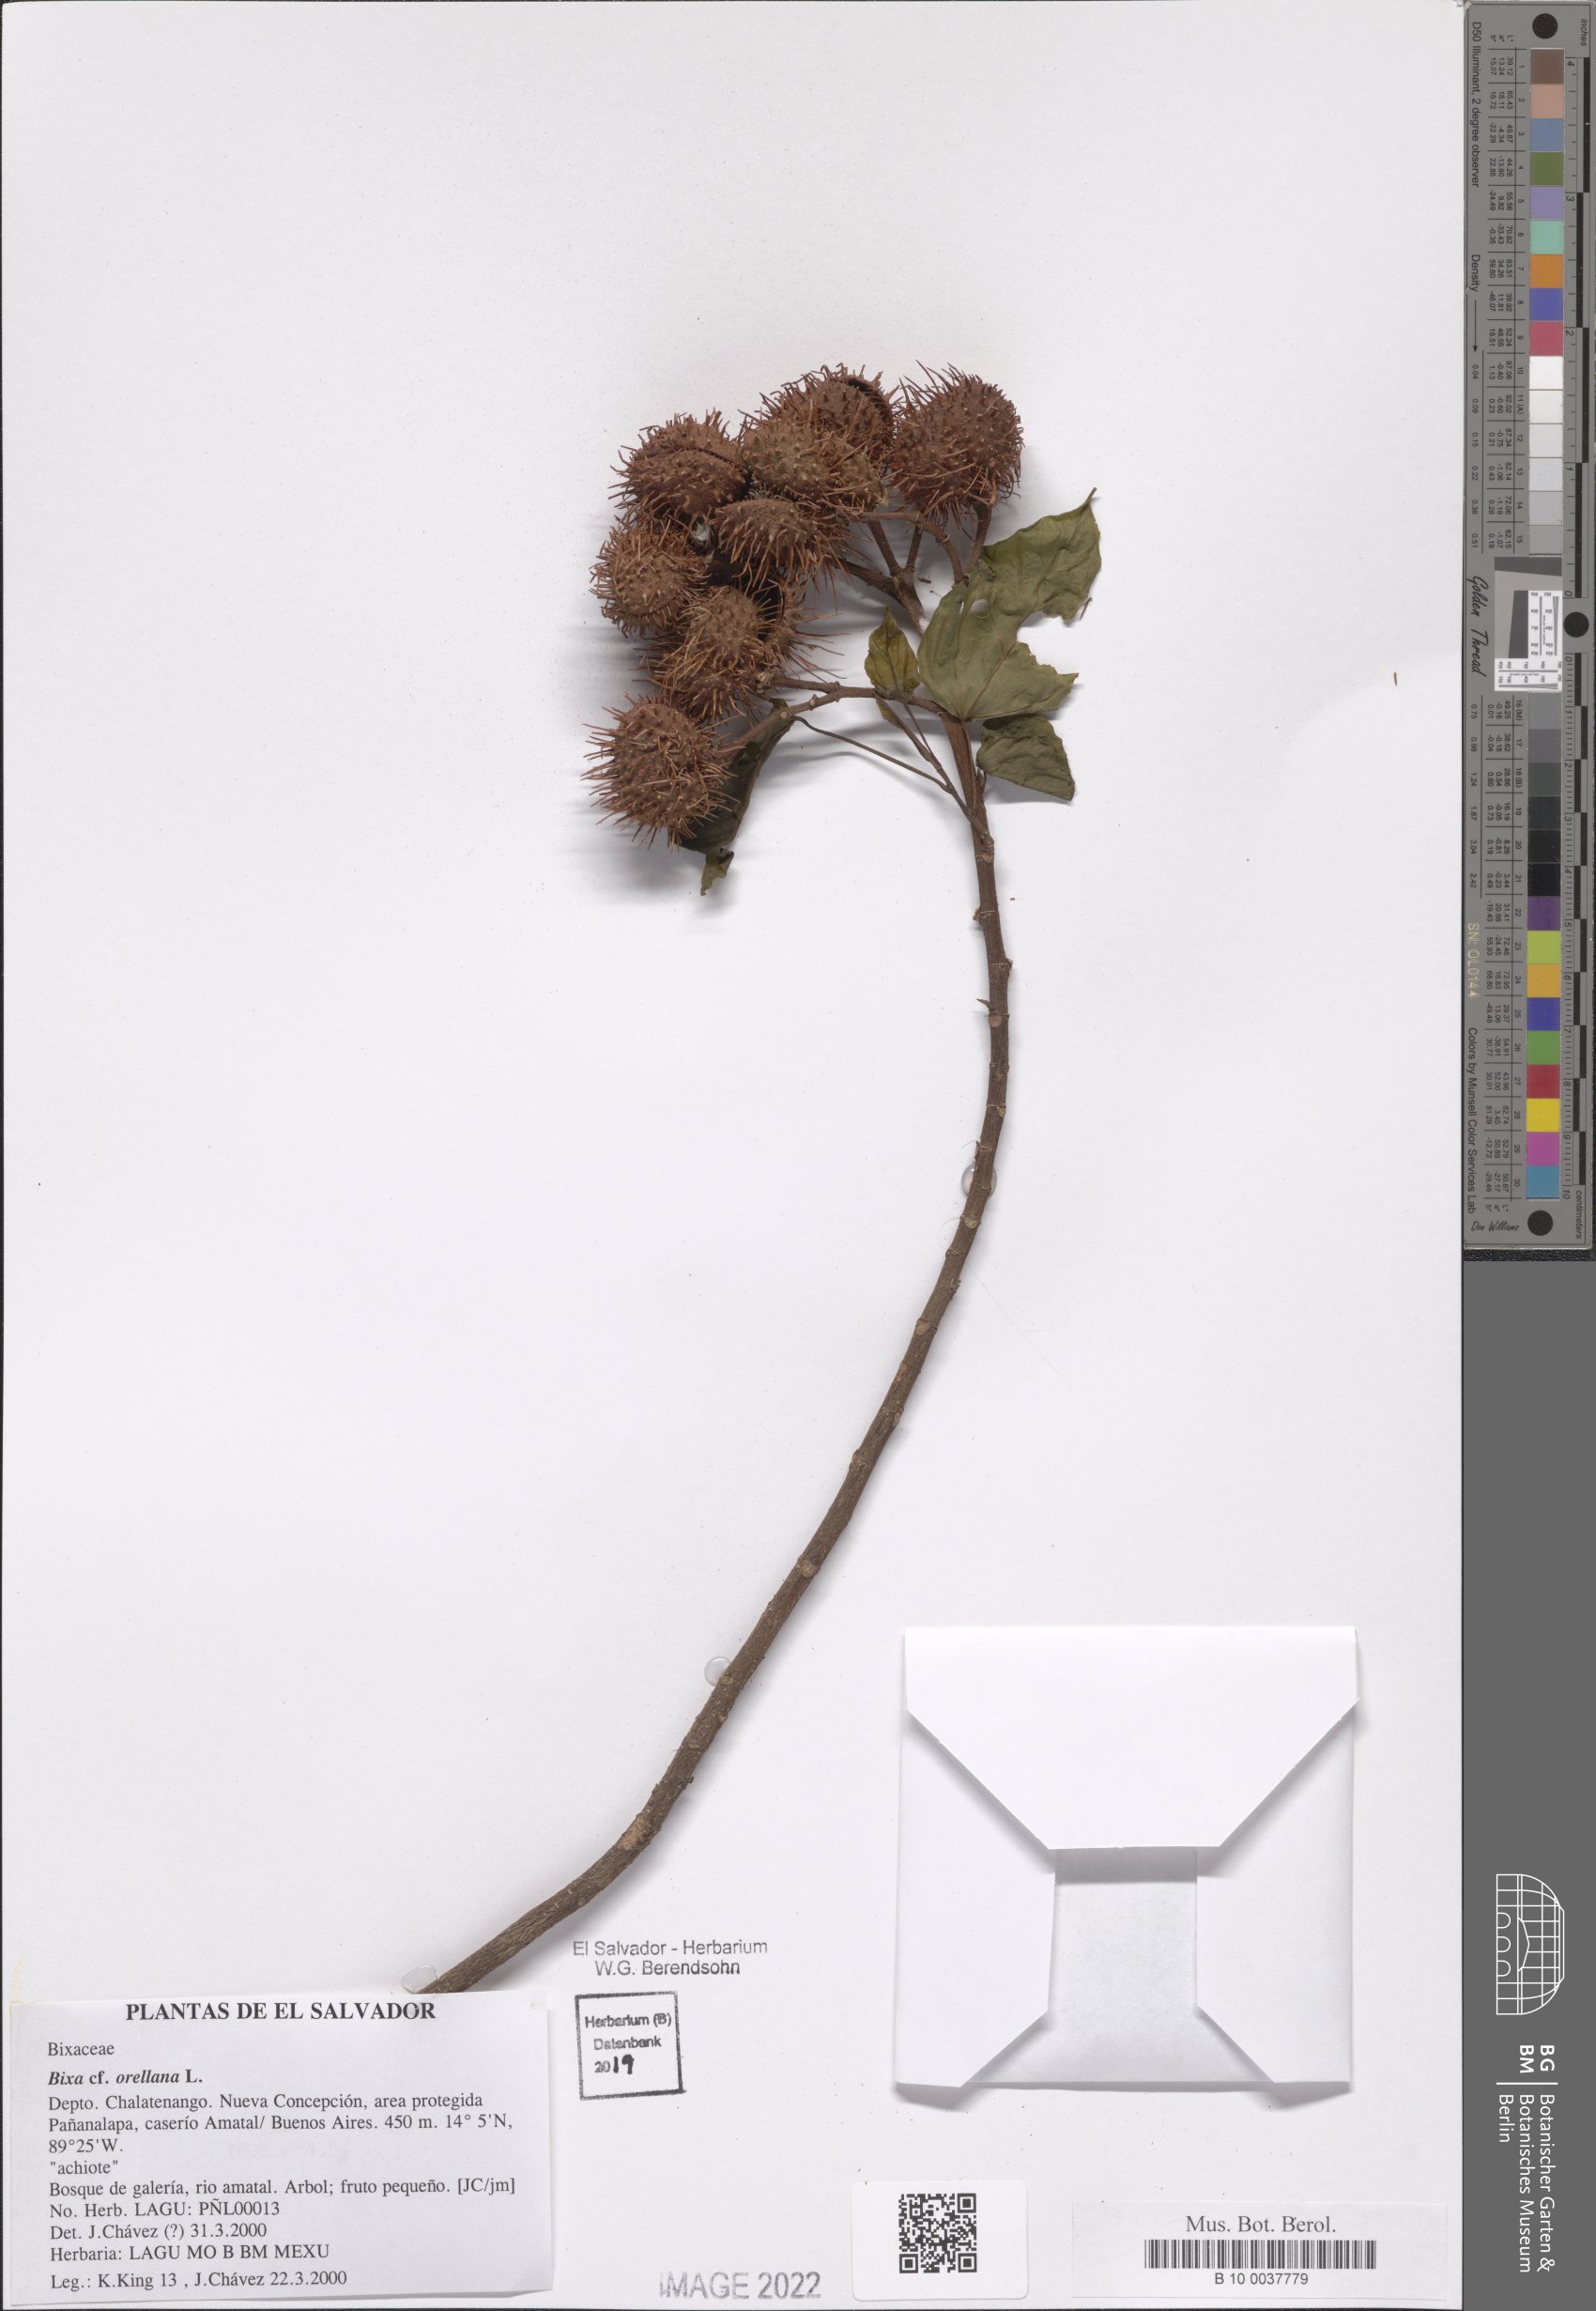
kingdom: Plantae
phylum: Tracheophyta
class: Magnoliopsida
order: Malvales
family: Bixaceae
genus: Bixa
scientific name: Bixa orellana
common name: Lipsticktree
